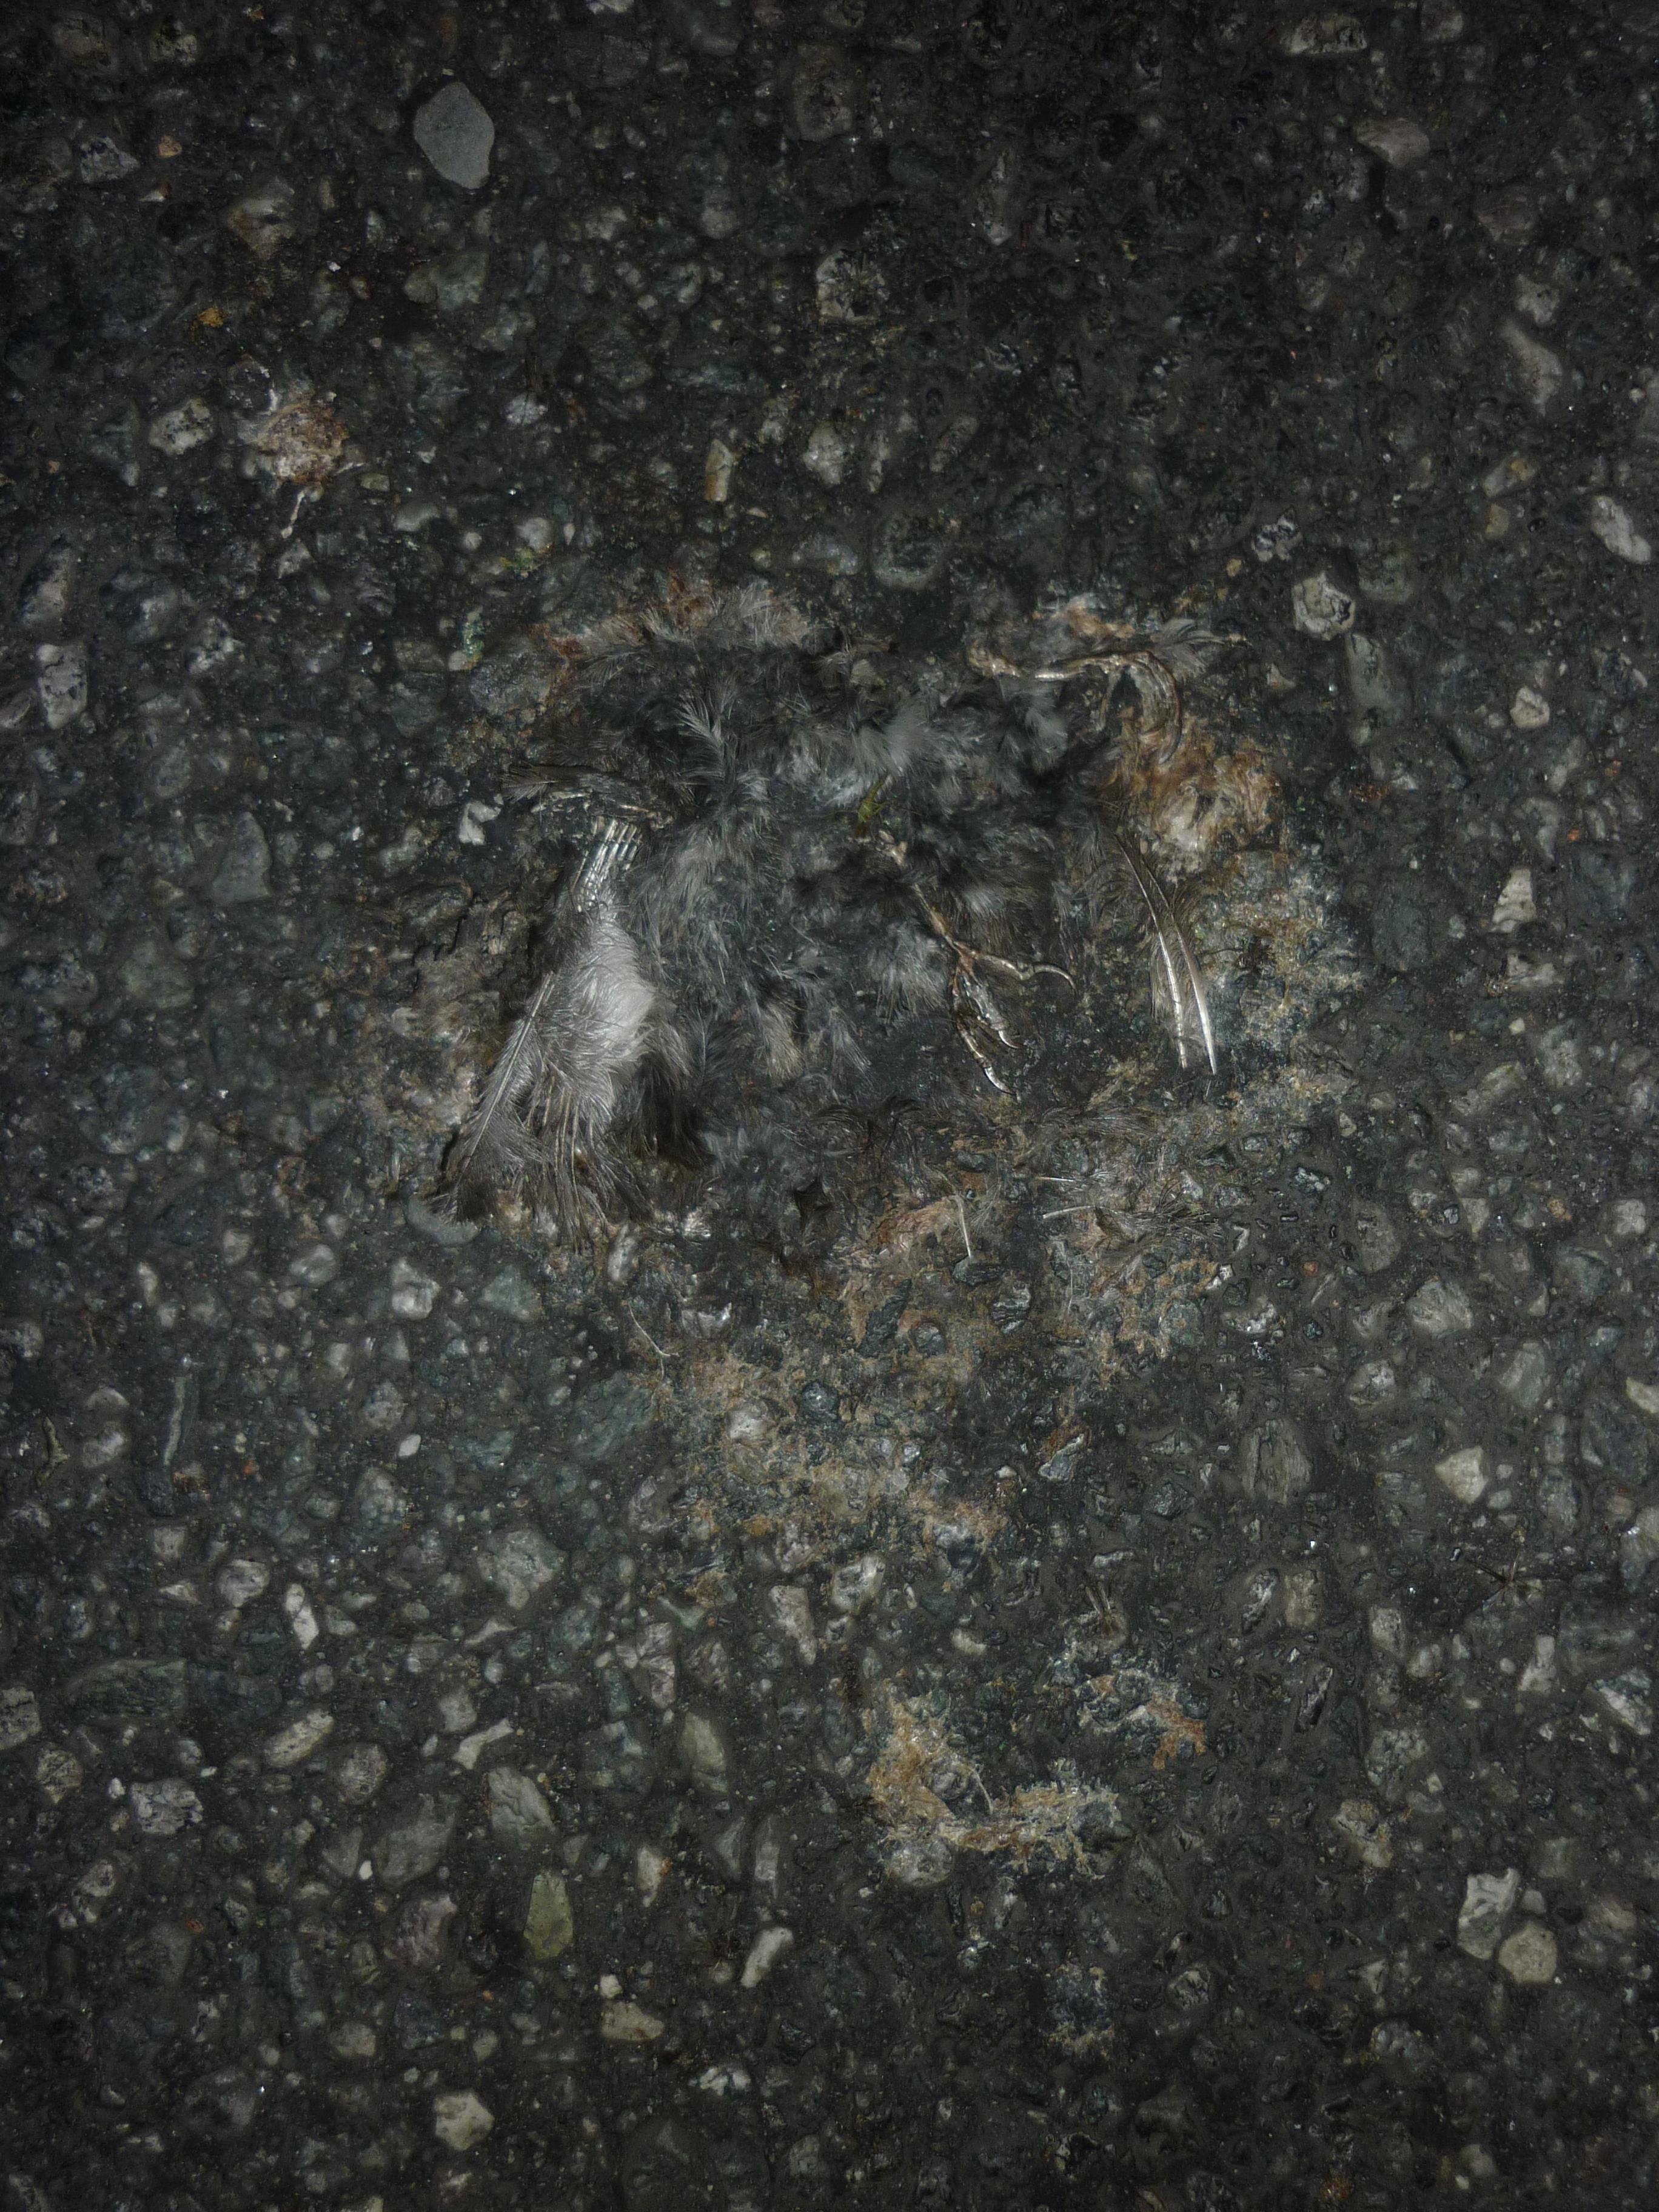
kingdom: Animalia
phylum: Chordata
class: Aves
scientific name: Aves
